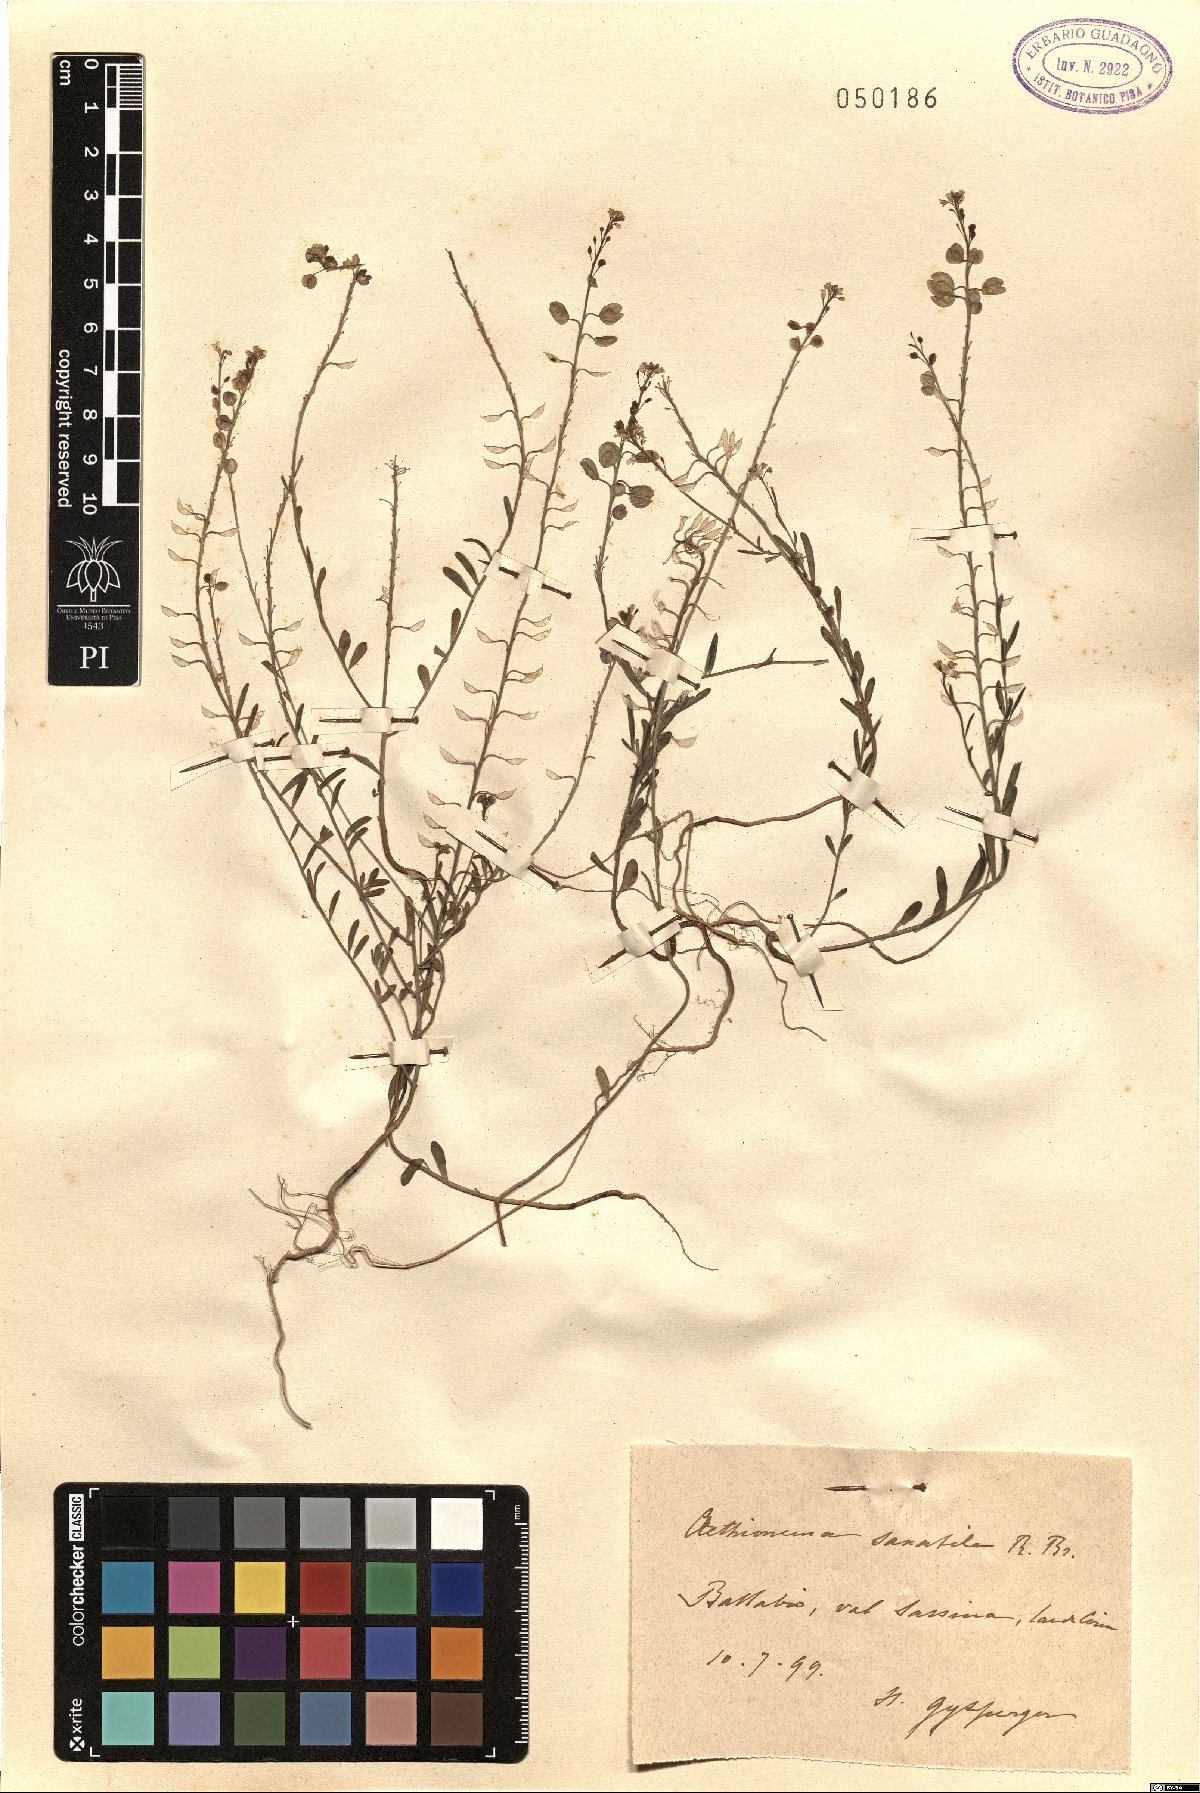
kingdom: Plantae
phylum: Tracheophyta
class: Magnoliopsida
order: Brassicales
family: Brassicaceae
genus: Aethionema
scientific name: Aethionema saxatile
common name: Burnt candytuft
